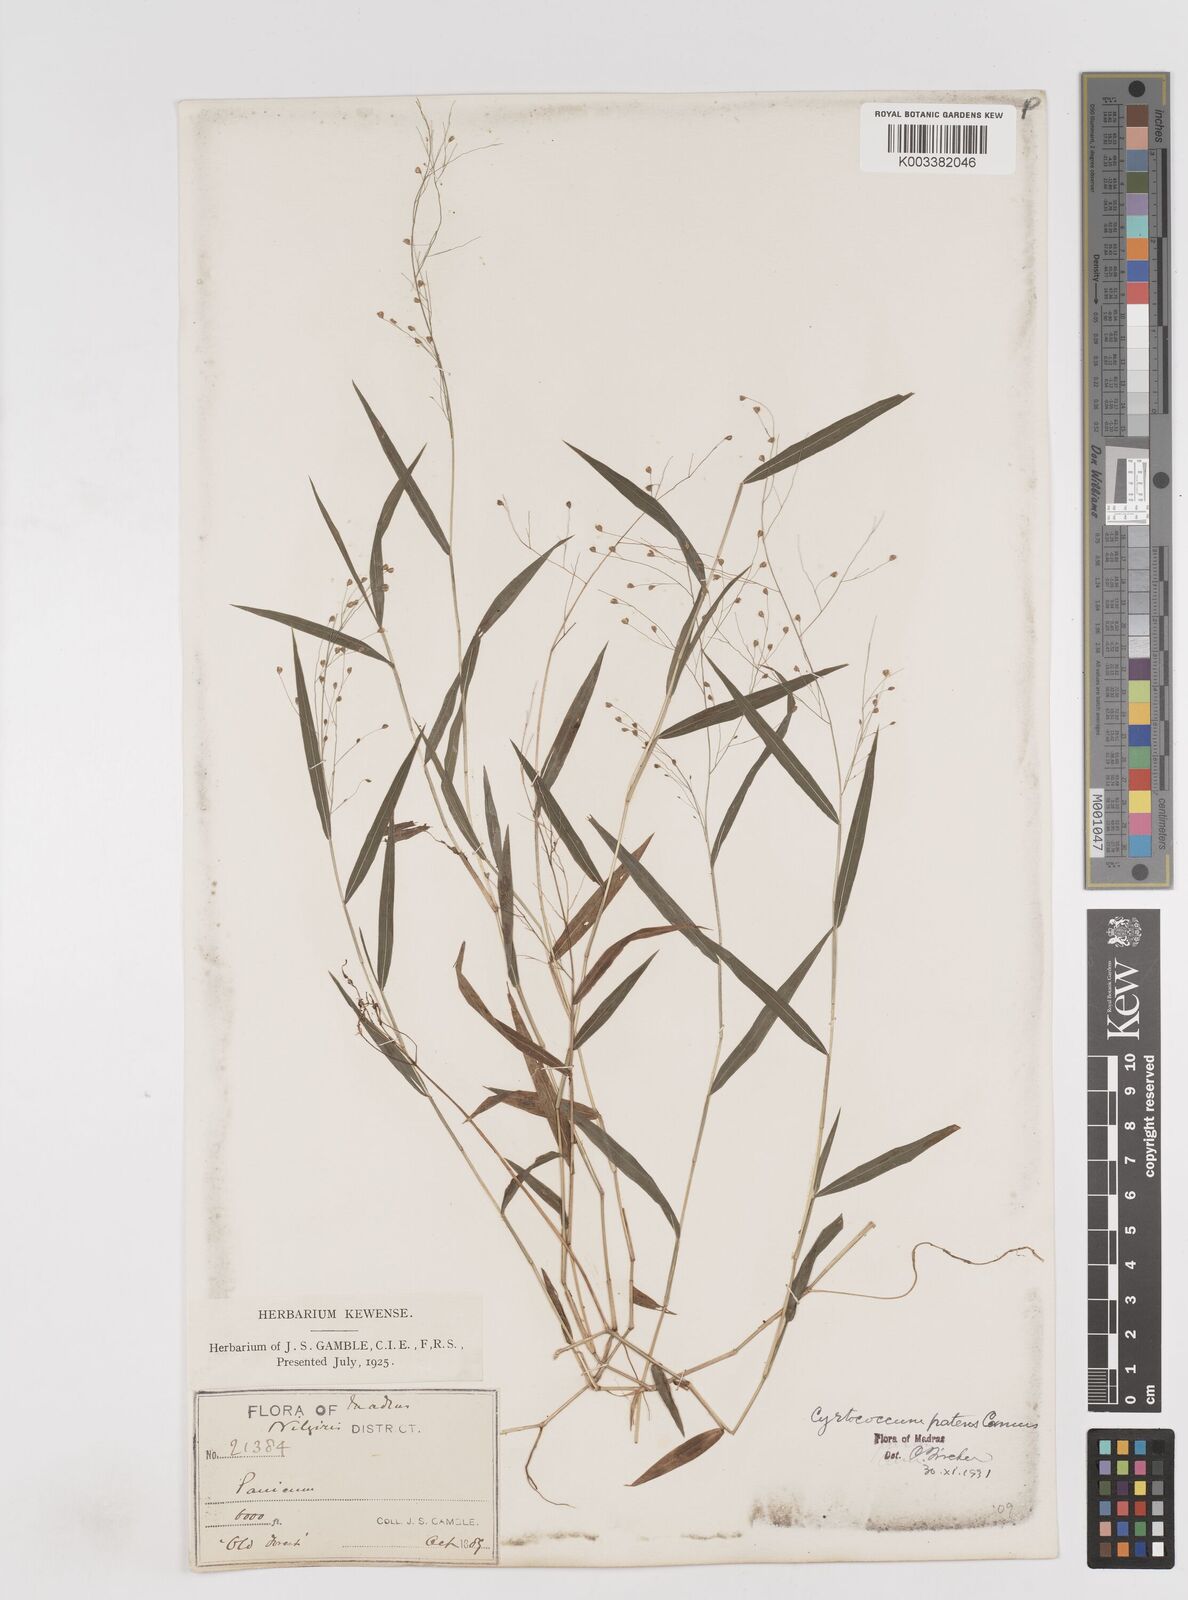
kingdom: Plantae
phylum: Tracheophyta
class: Liliopsida
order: Poales
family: Poaceae
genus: Cyrtococcum
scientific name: Cyrtococcum deccanense
